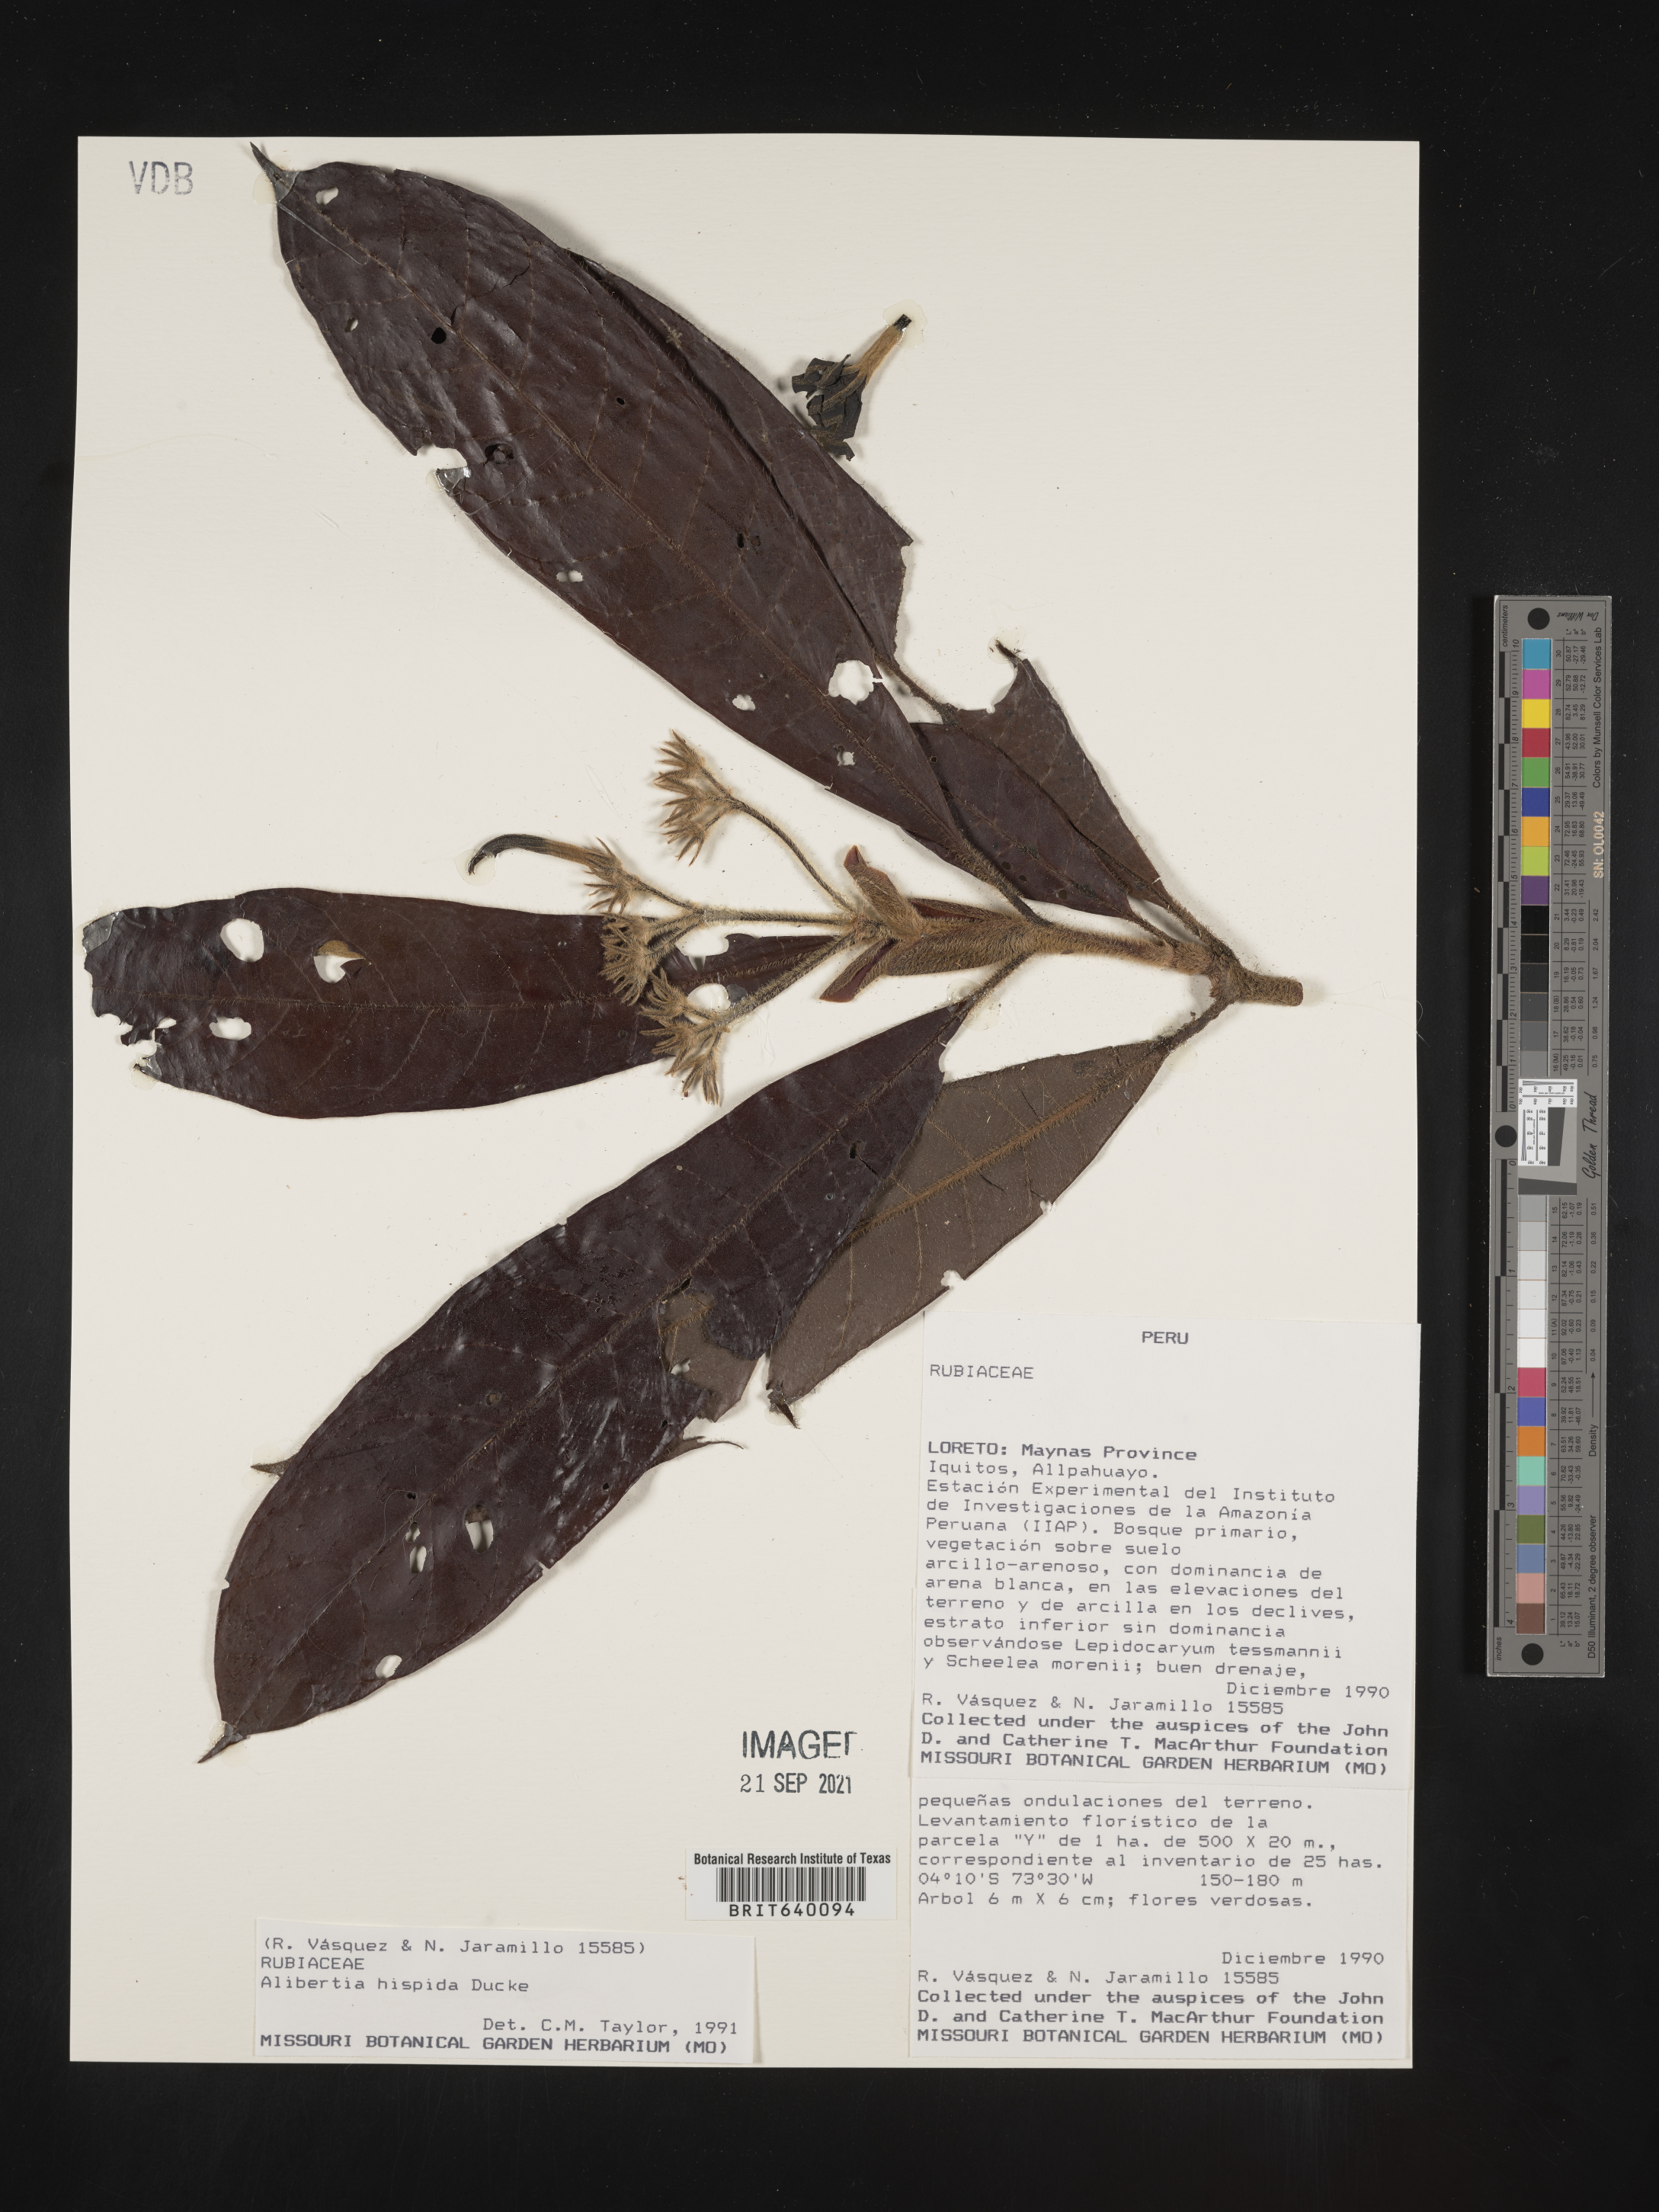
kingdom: Plantae
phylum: Tracheophyta
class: Magnoliopsida
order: Gentianales
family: Rubiaceae
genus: Alibertia
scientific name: Alibertia
